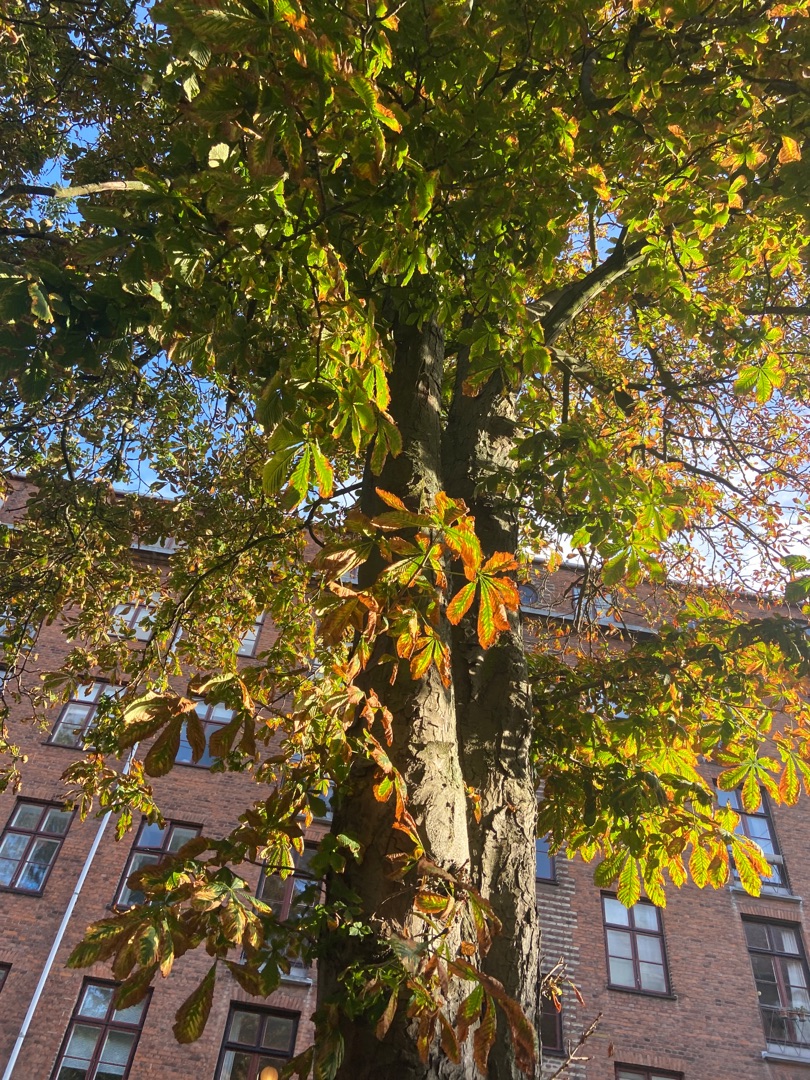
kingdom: Plantae
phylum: Tracheophyta
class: Magnoliopsida
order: Sapindales
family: Sapindaceae
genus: Aesculus
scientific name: Aesculus hippocastanum
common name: Hestekastanie
